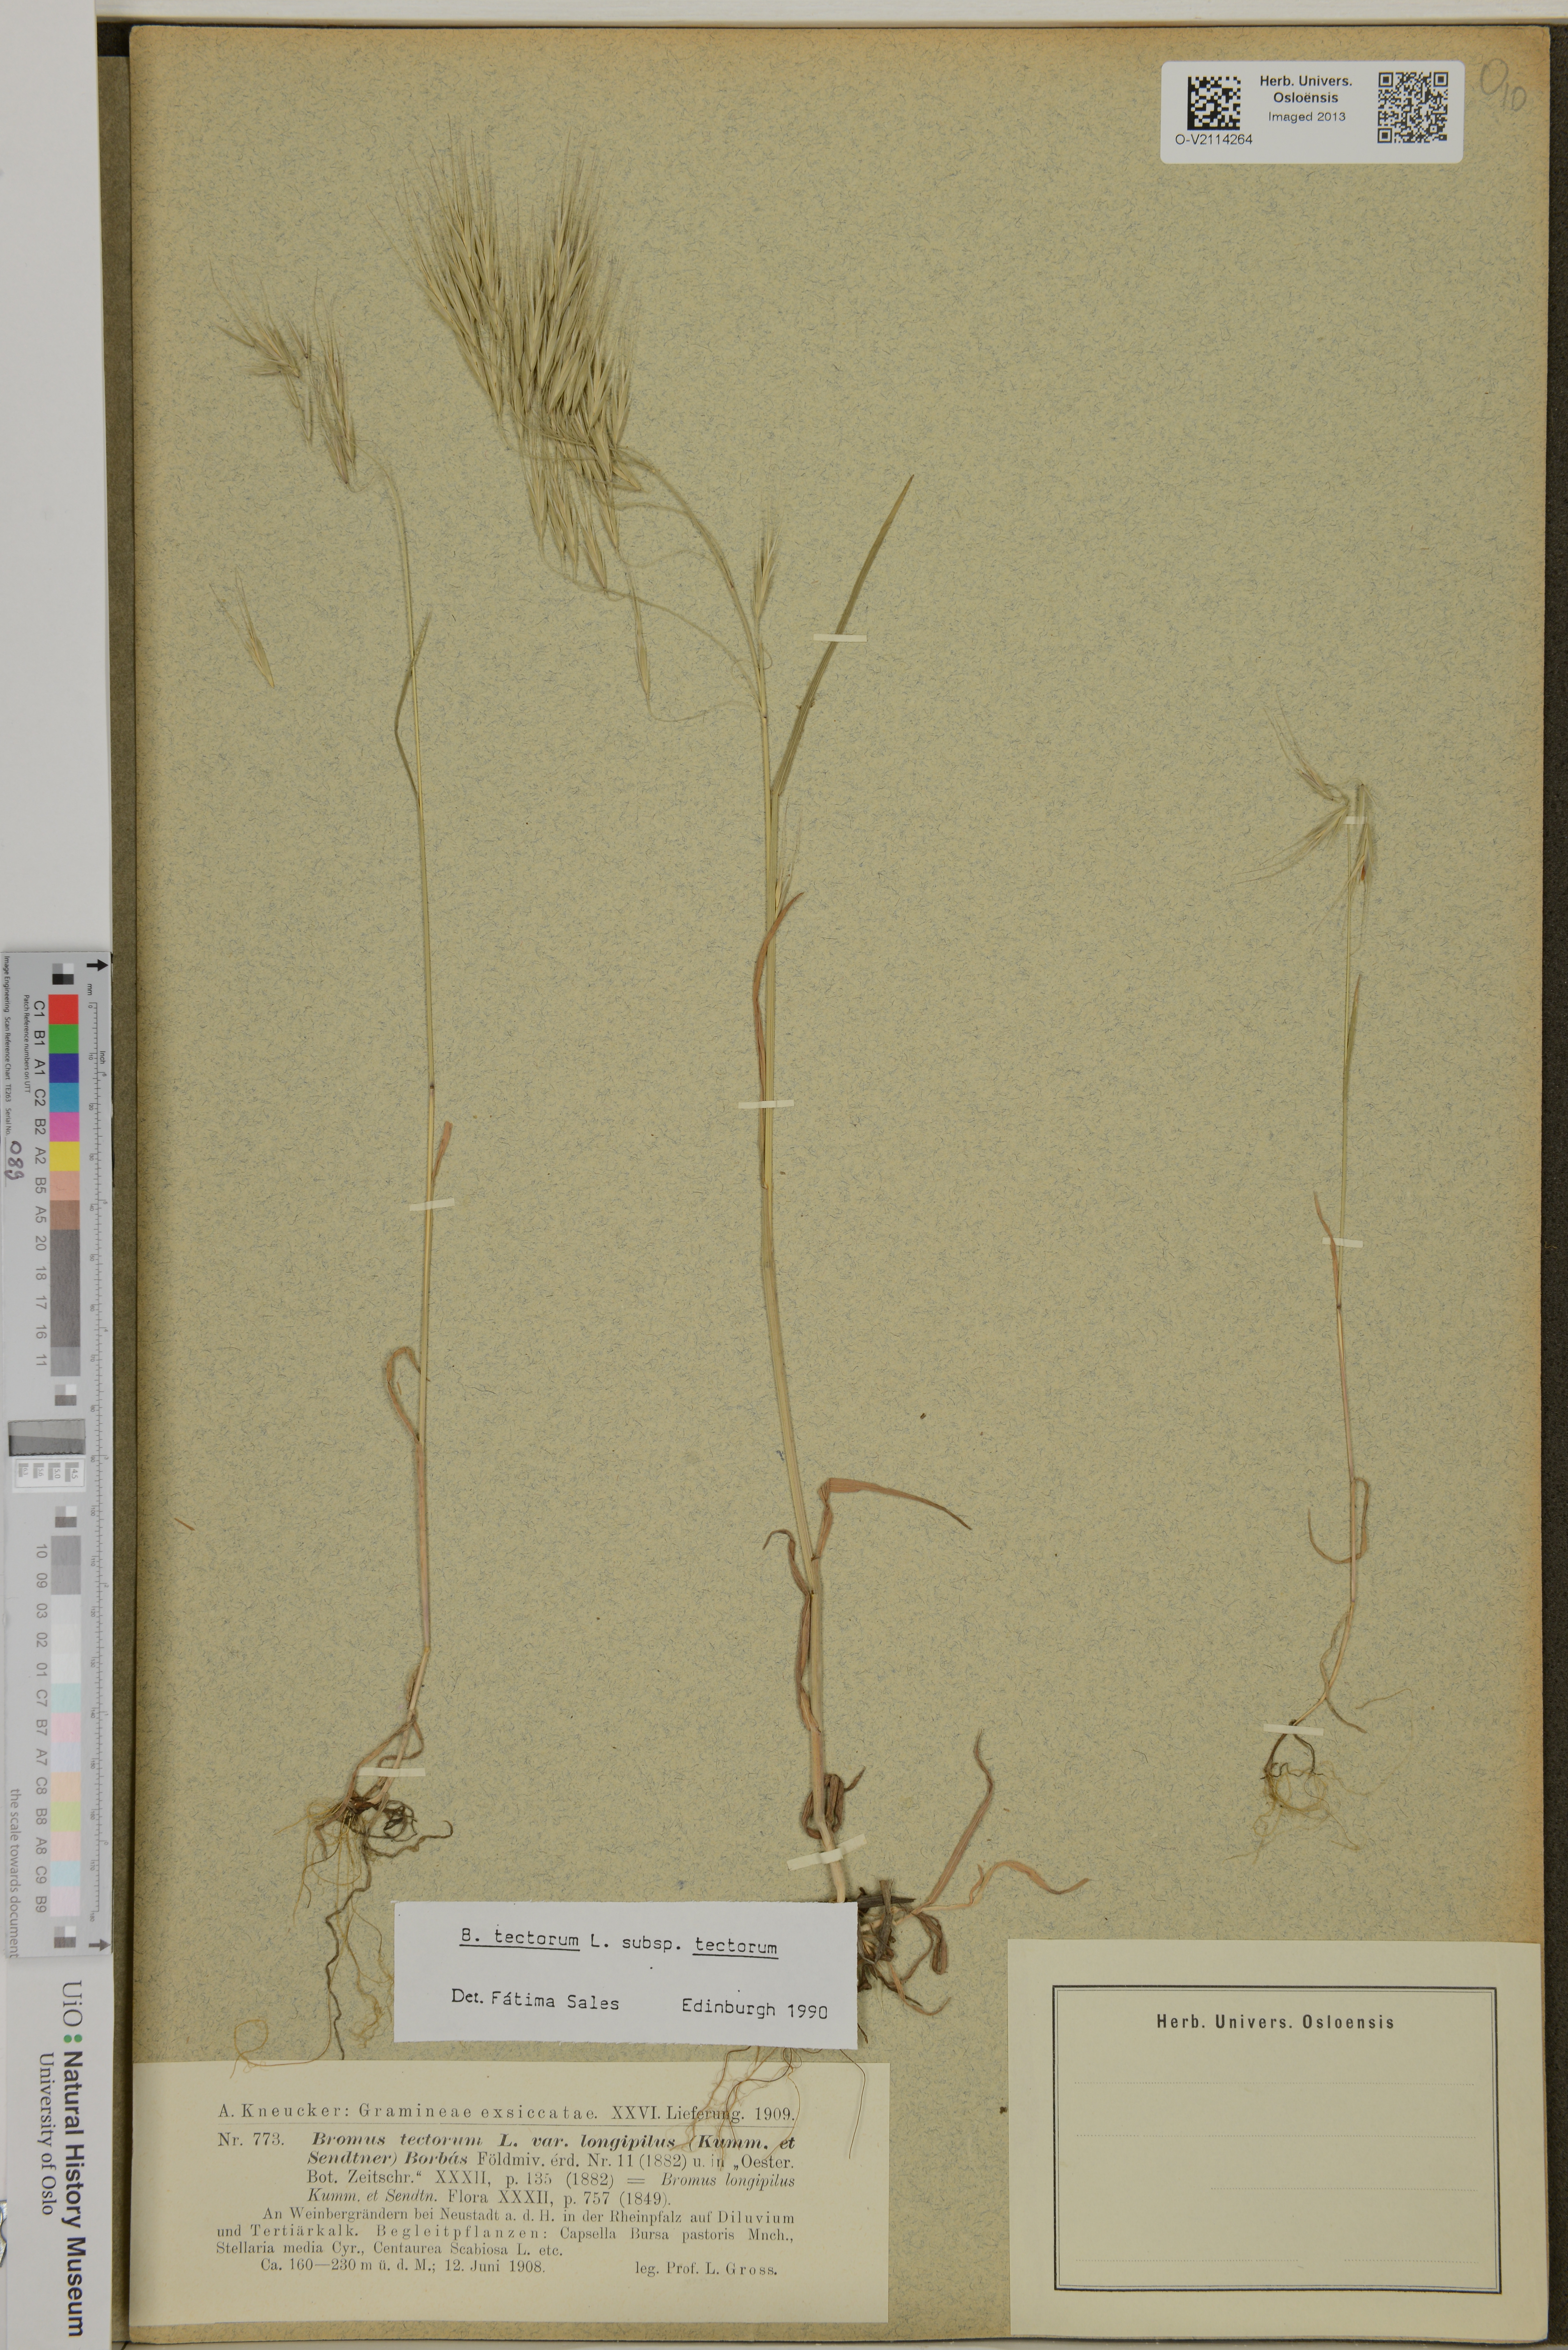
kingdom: Plantae
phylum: Tracheophyta
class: Liliopsida
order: Poales
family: Poaceae
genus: Bromus
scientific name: Bromus tectorum
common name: Cheatgrass
